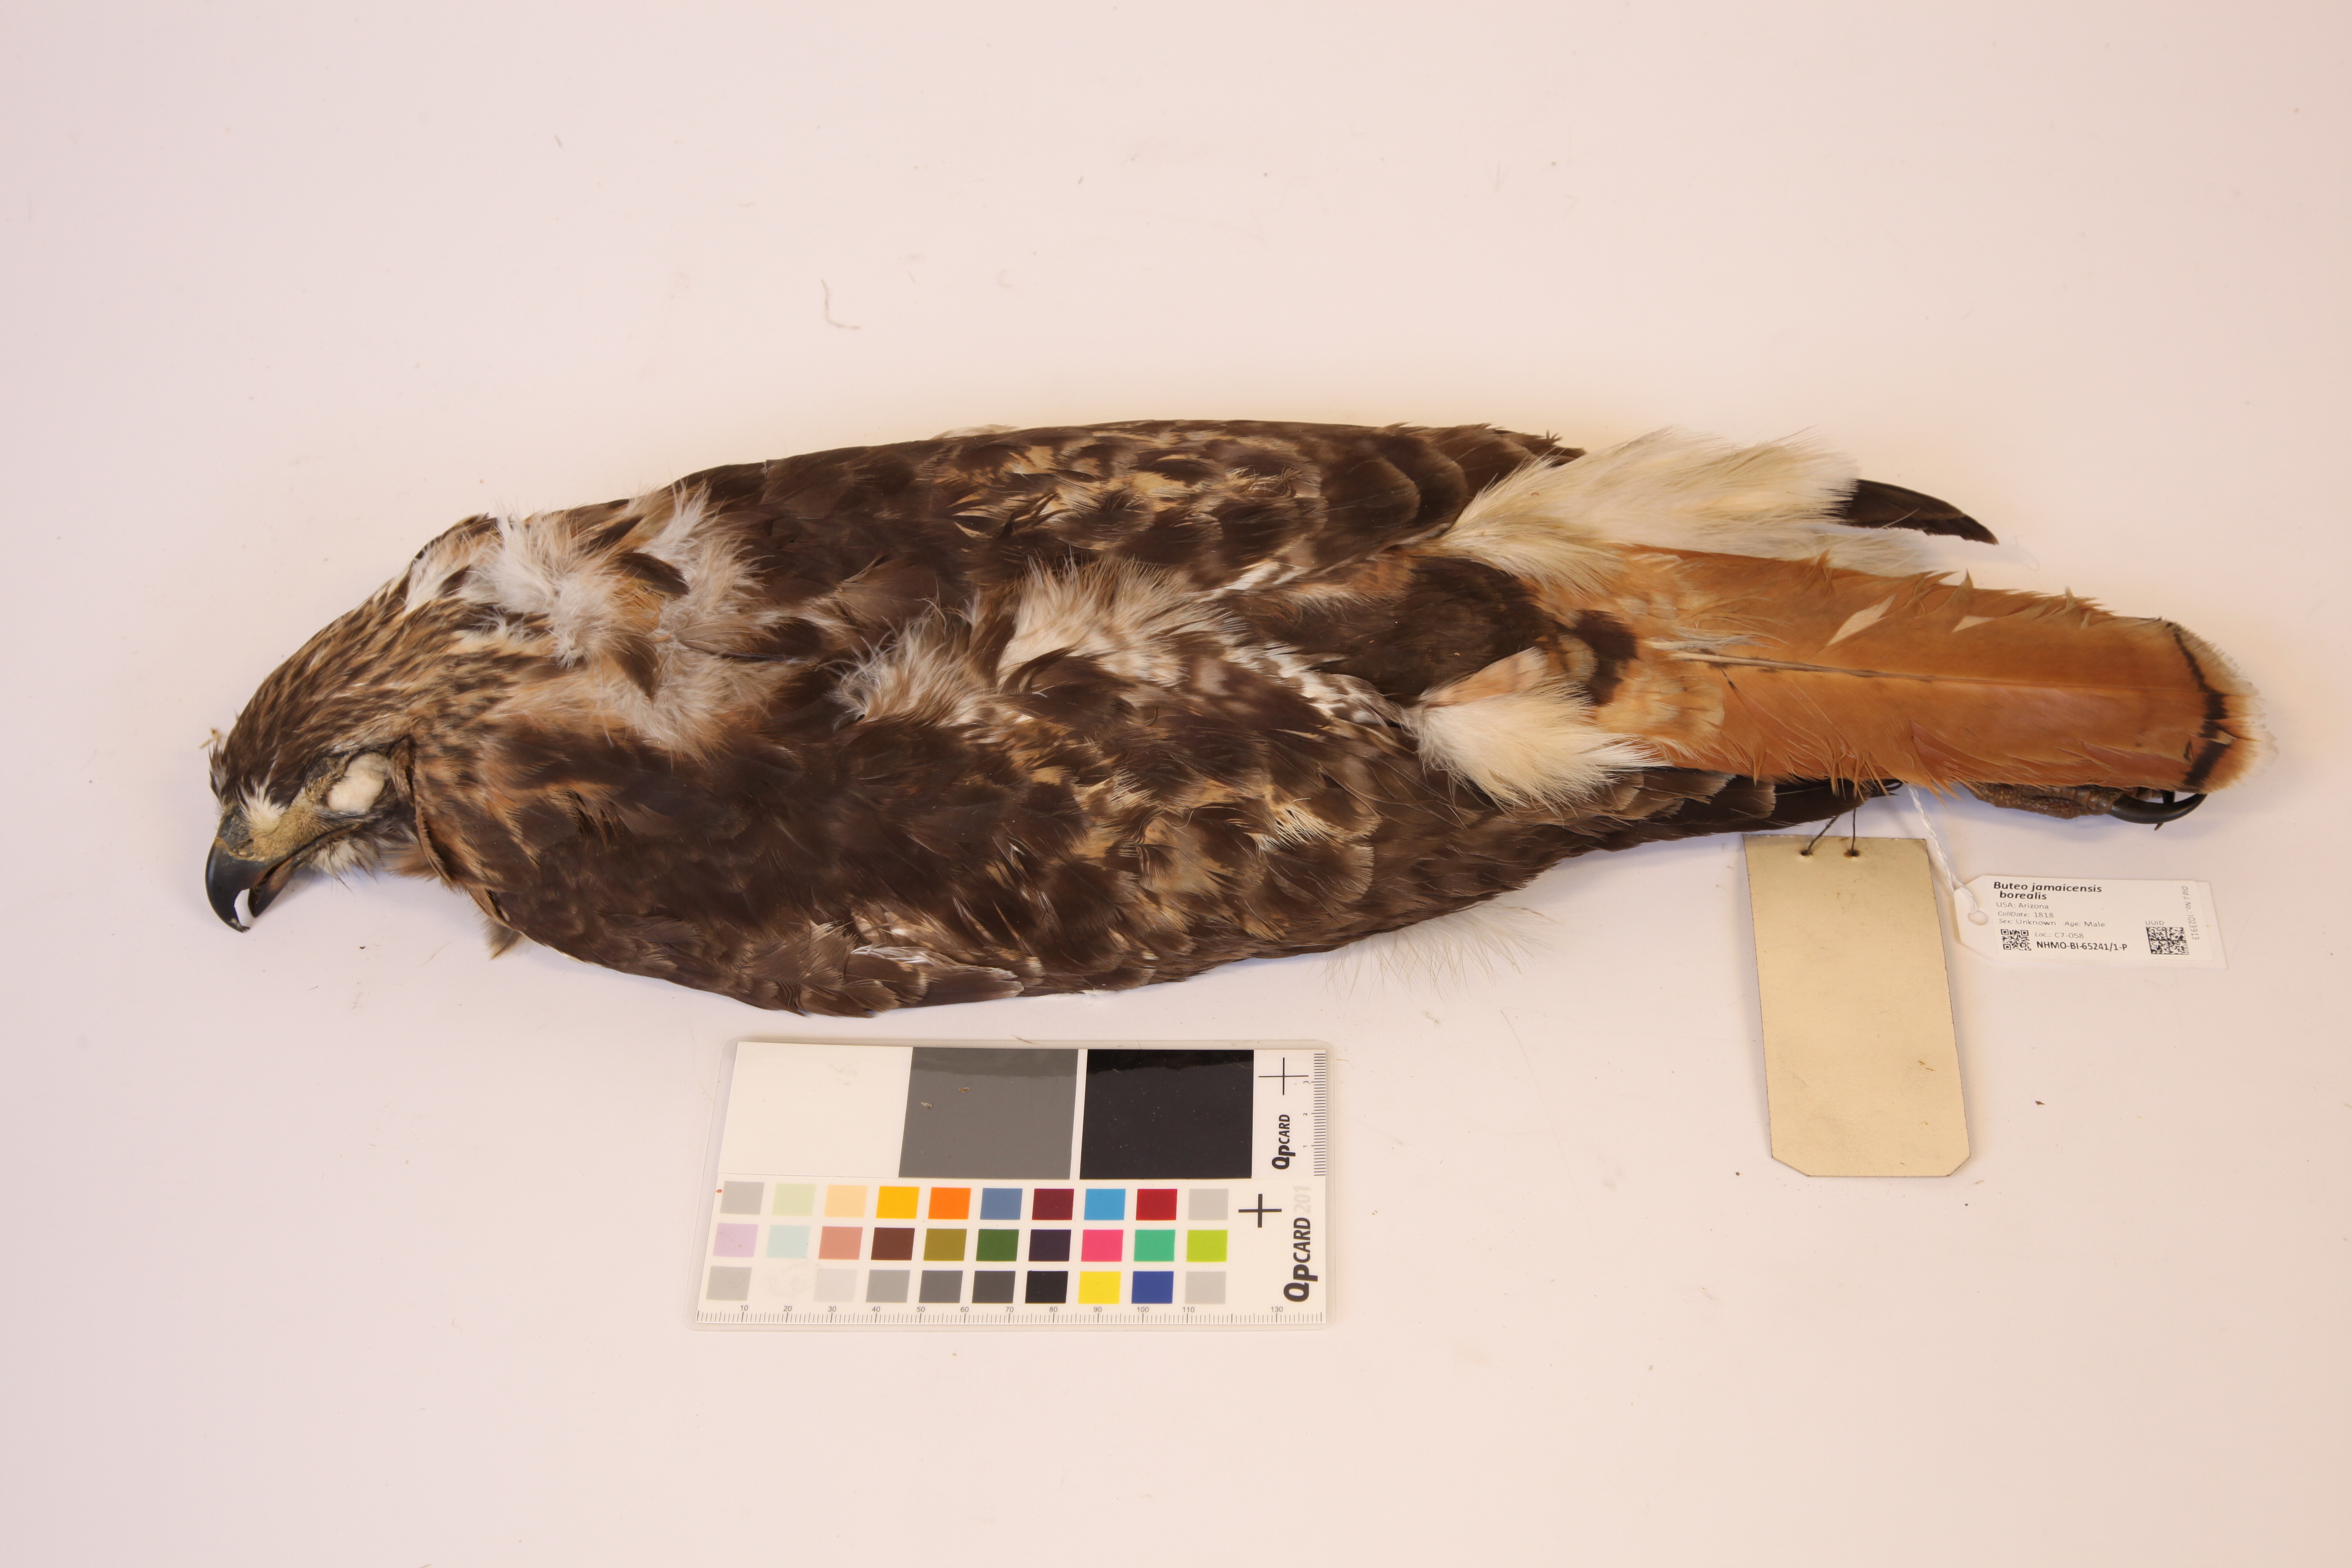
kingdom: Animalia
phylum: Chordata
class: Aves
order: Accipitriformes
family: Accipitridae
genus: Buteo
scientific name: Buteo jamaicensis
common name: Red-tailed hawk
